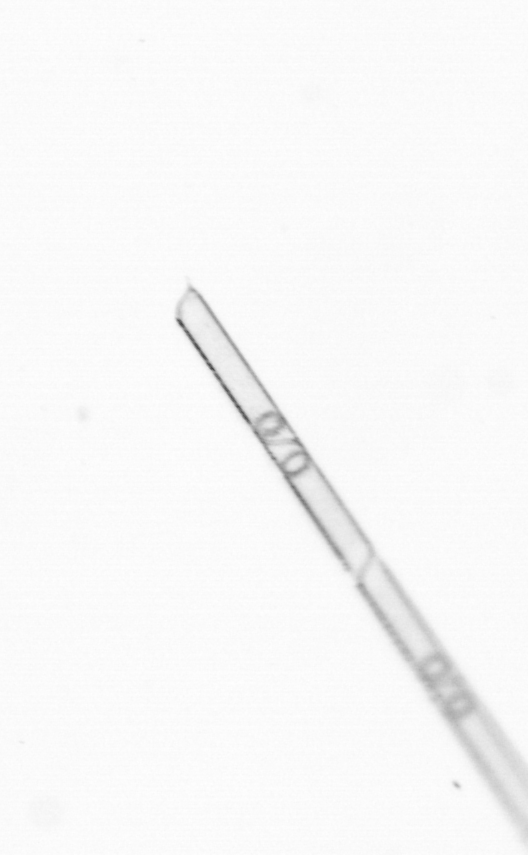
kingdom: Chromista
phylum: Ochrophyta
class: Bacillariophyceae
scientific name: Bacillariophyceae
